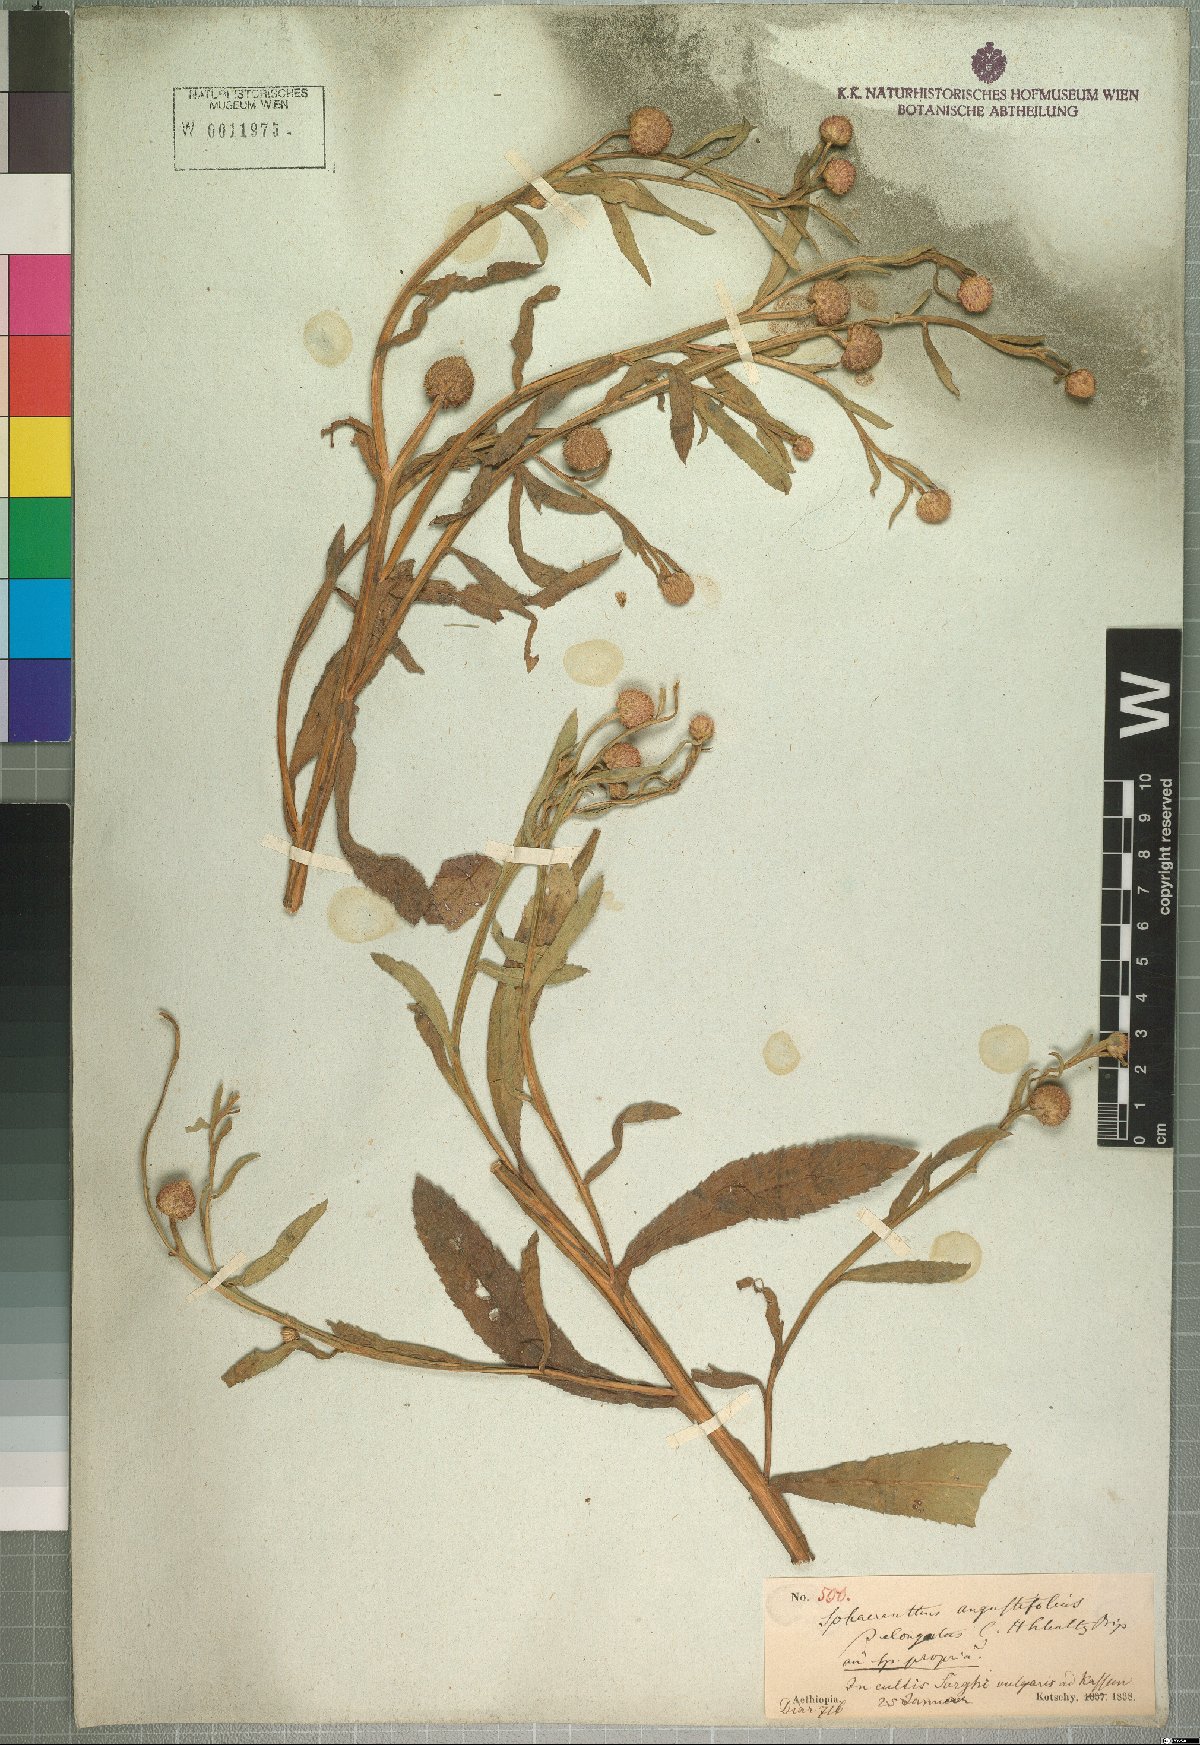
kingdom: Plantae
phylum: Tracheophyta
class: Magnoliopsida
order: Asterales
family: Asteraceae
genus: Sphaeranthus
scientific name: Sphaeranthus suaveolens
